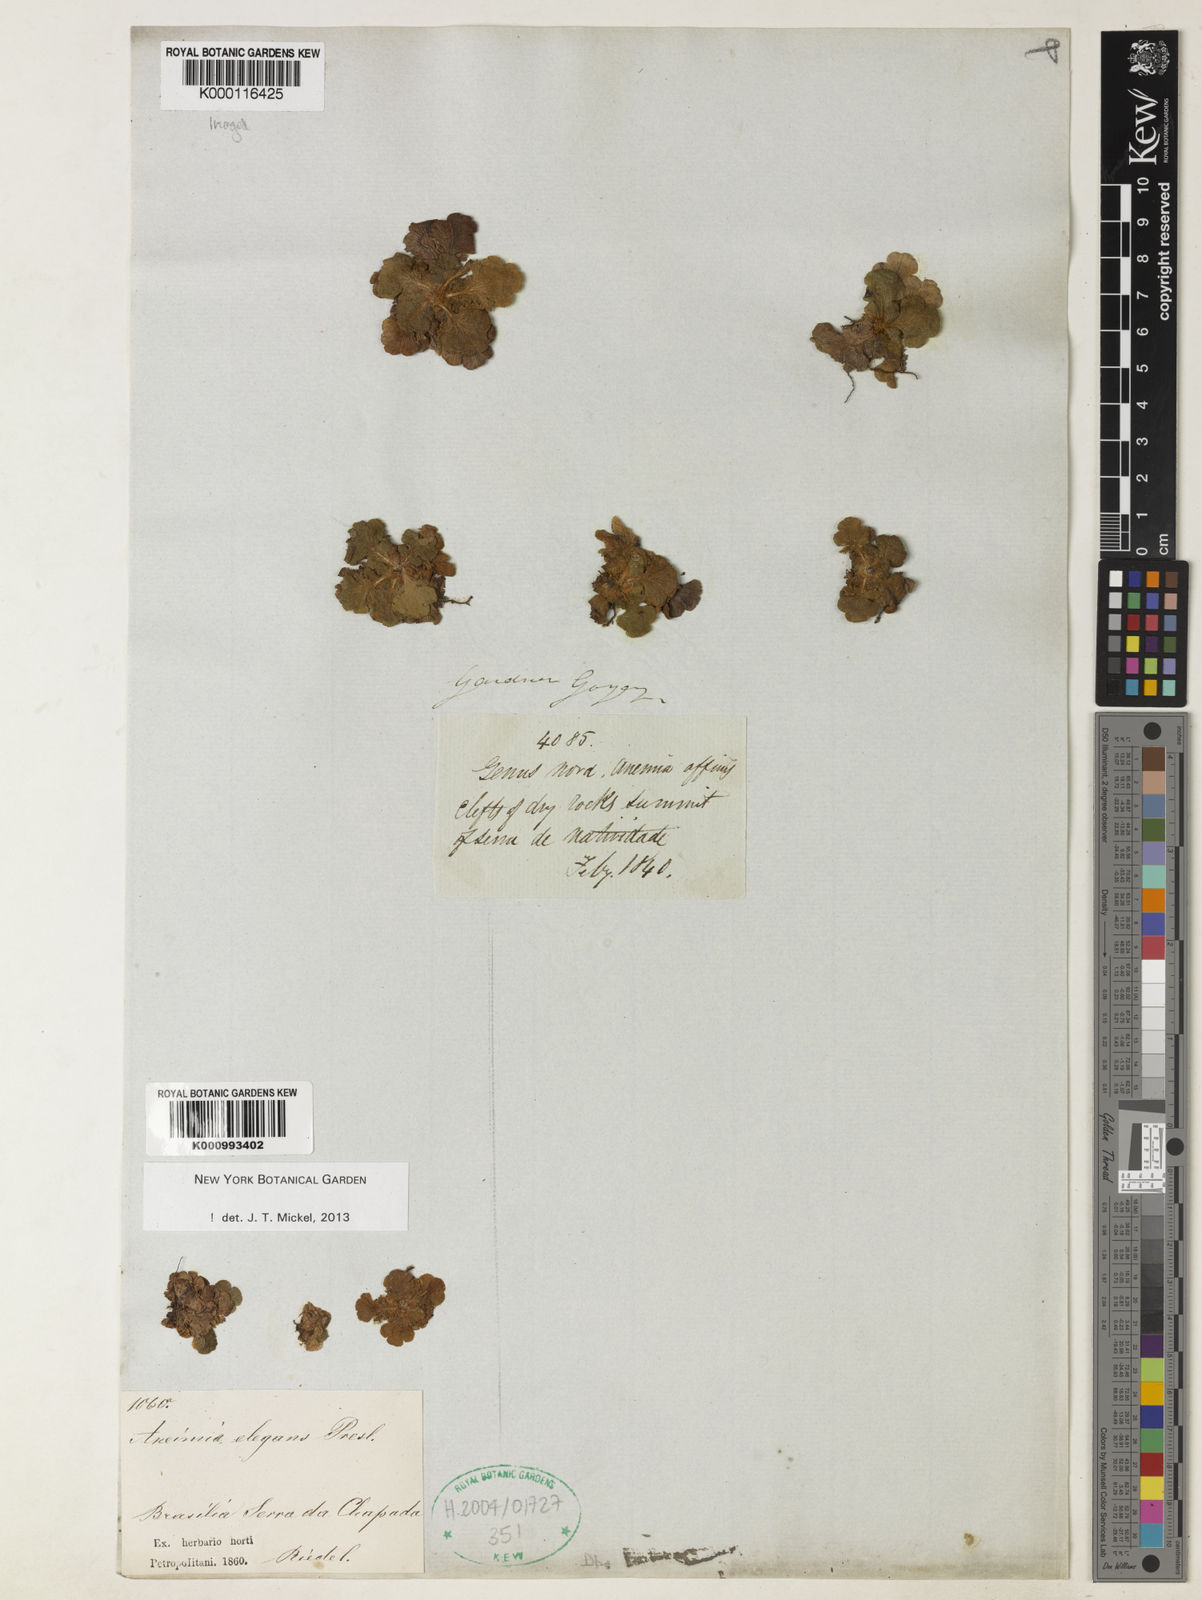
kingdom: Plantae
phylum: Tracheophyta
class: Polypodiopsida
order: Schizaeales
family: Anemiaceae
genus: Anemia
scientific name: Anemia
